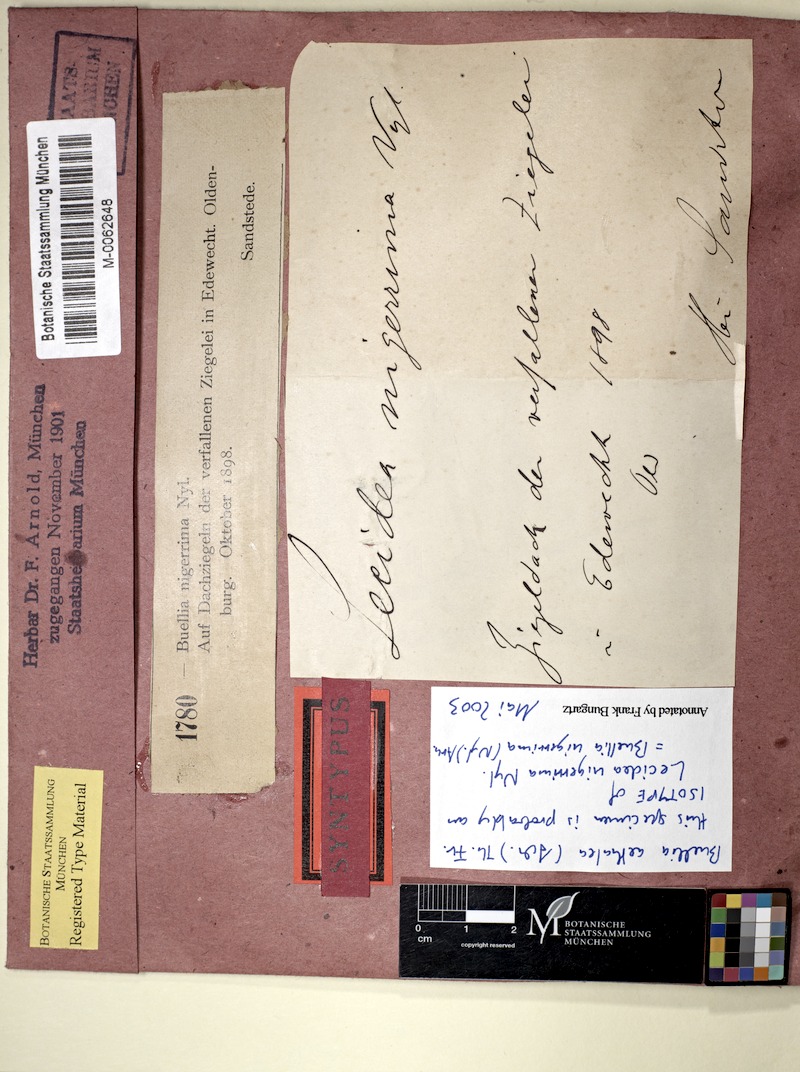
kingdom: Fungi
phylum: Ascomycota
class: Lecanoromycetes
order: Caliciales
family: Caliciaceae
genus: Buellia
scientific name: Buellia aethalea
